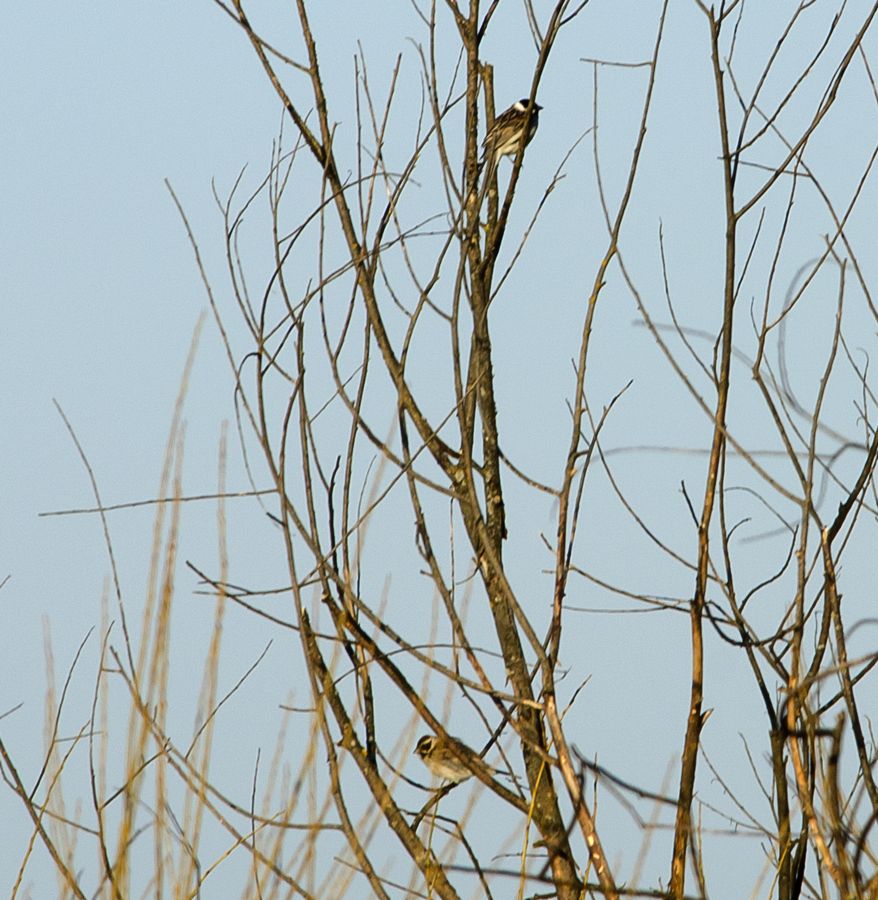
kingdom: Animalia
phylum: Chordata
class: Aves
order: Passeriformes
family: Emberizidae
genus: Emberiza
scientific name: Emberiza schoeniclus
